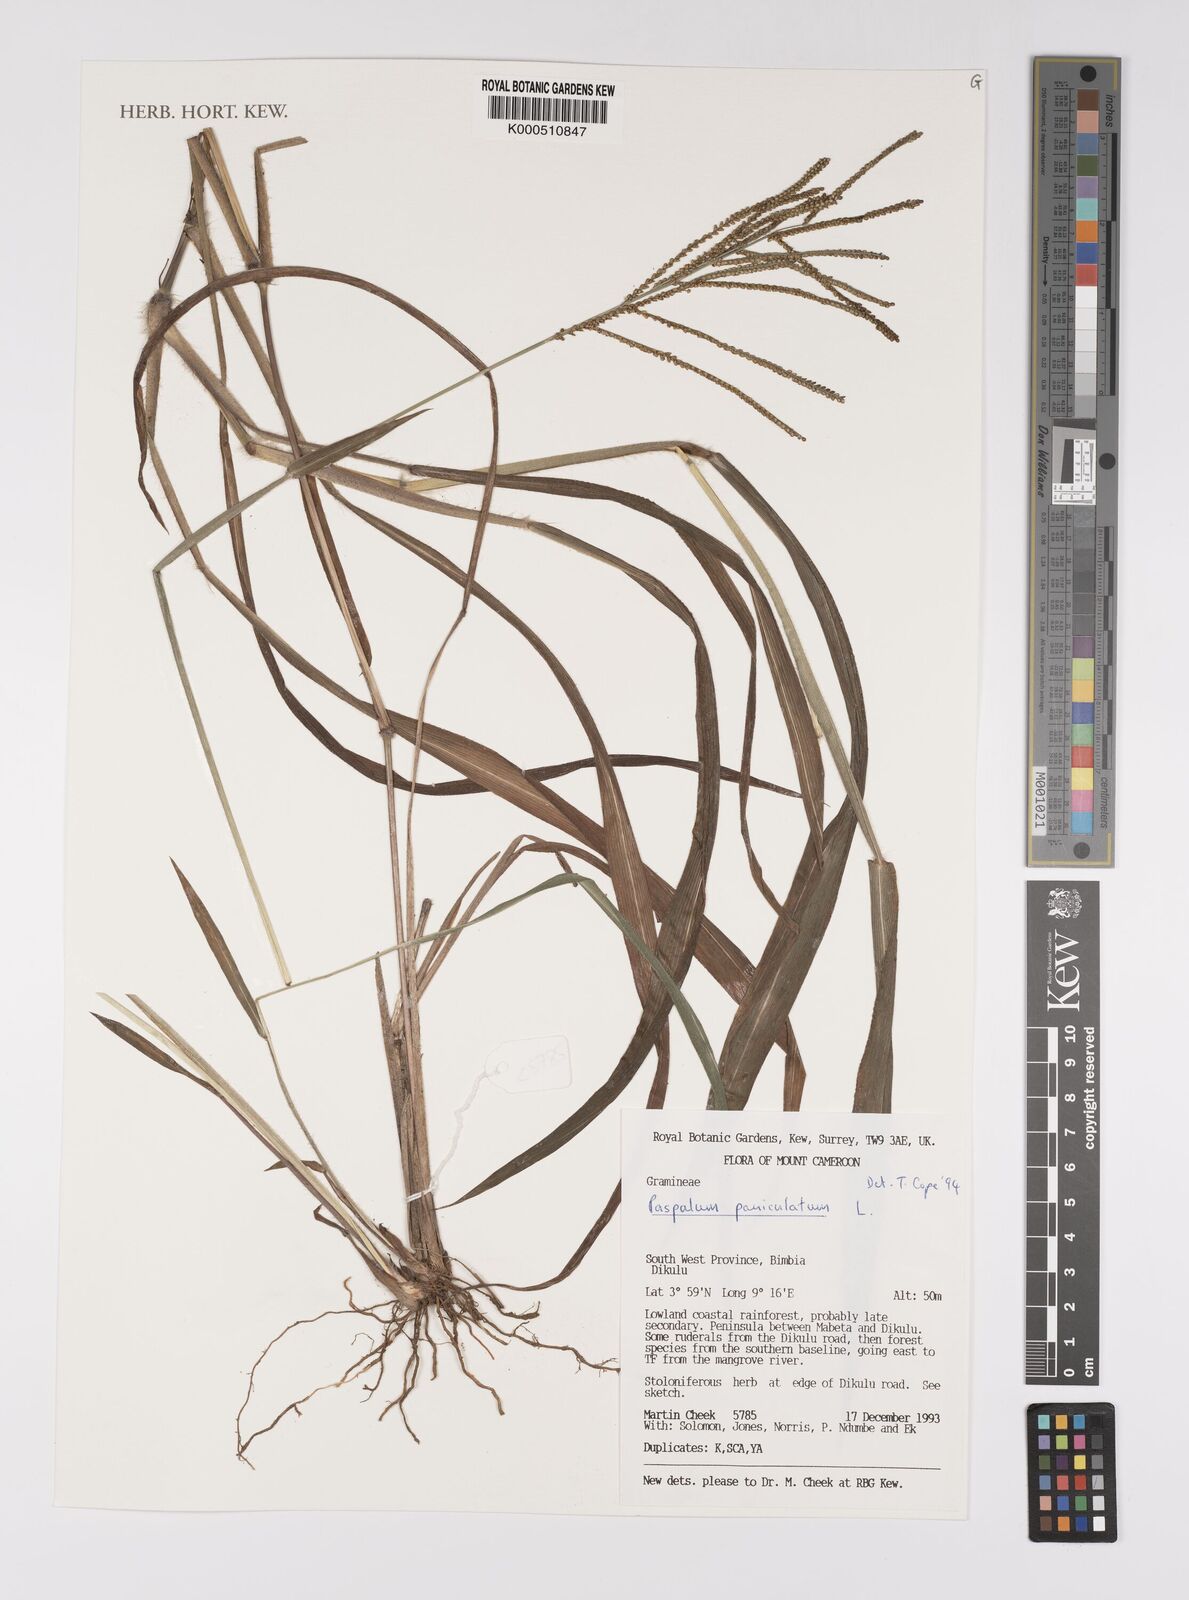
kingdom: Plantae
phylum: Tracheophyta
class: Liliopsida
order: Poales
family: Poaceae
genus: Paspalum
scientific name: Paspalum paniculatum
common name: Arrocillo
